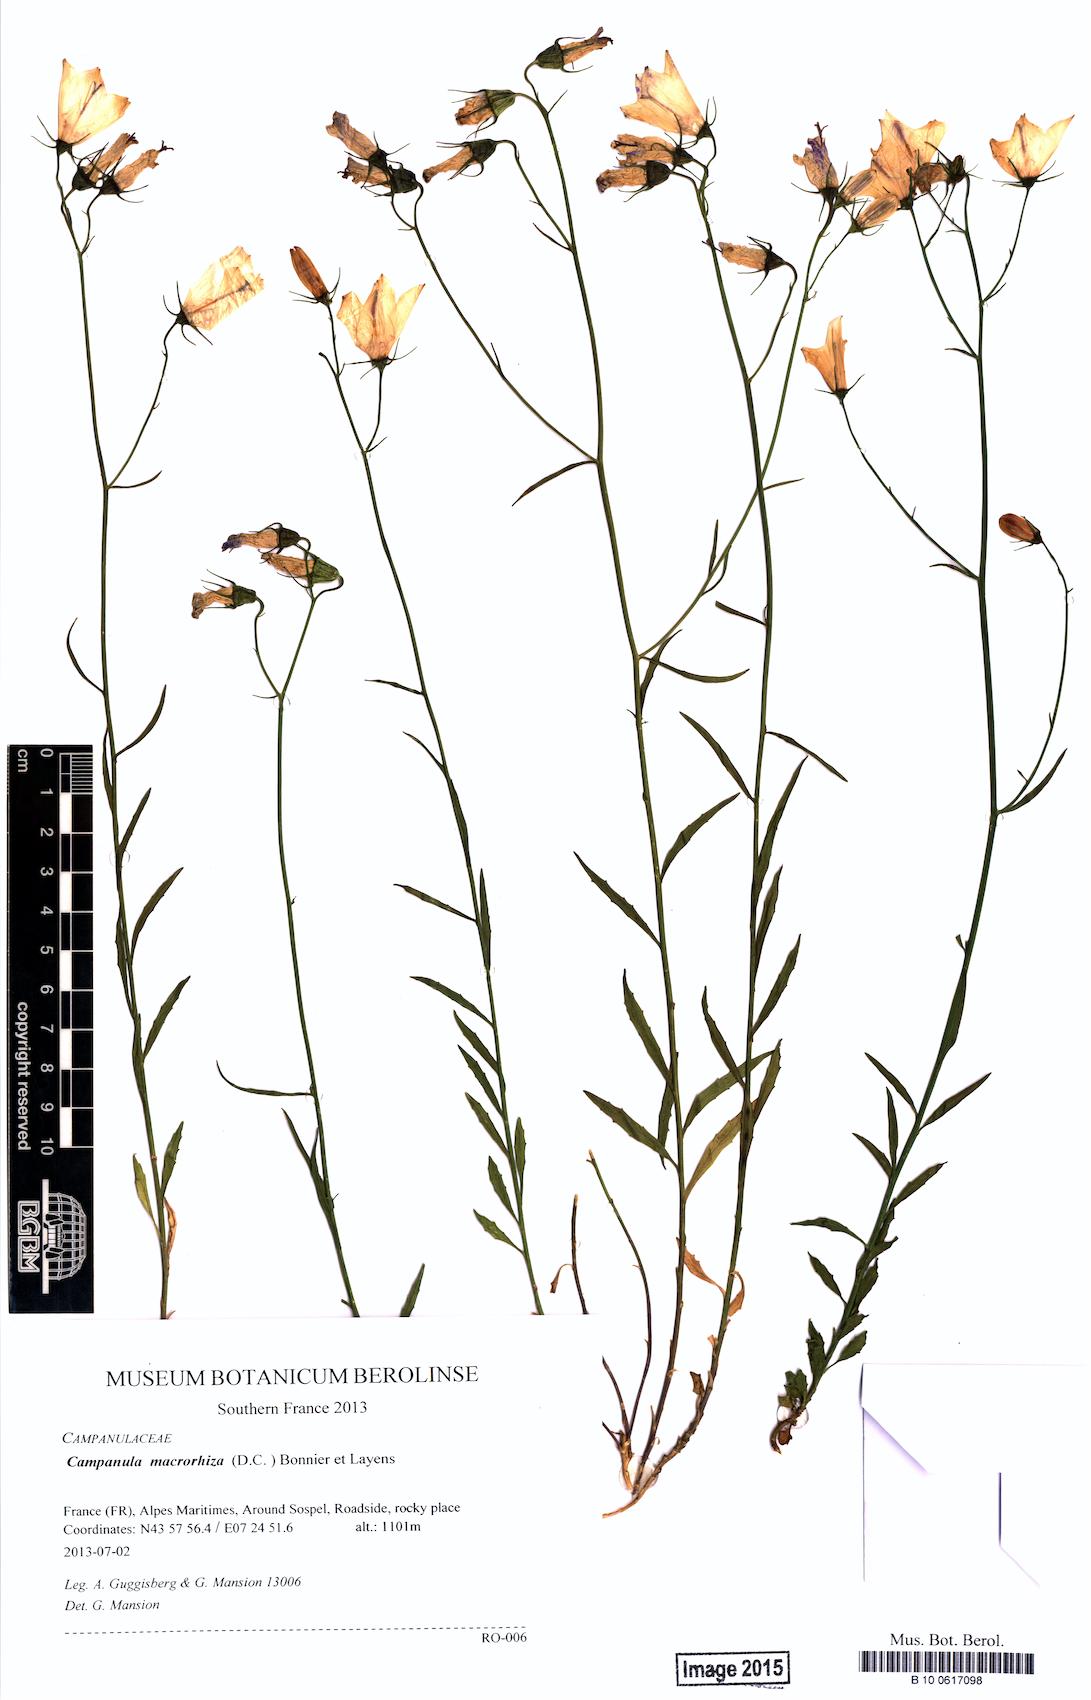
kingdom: Plantae
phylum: Tracheophyta
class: Magnoliopsida
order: Asterales
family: Campanulaceae
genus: Campanula
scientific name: Campanula macrorhiza
